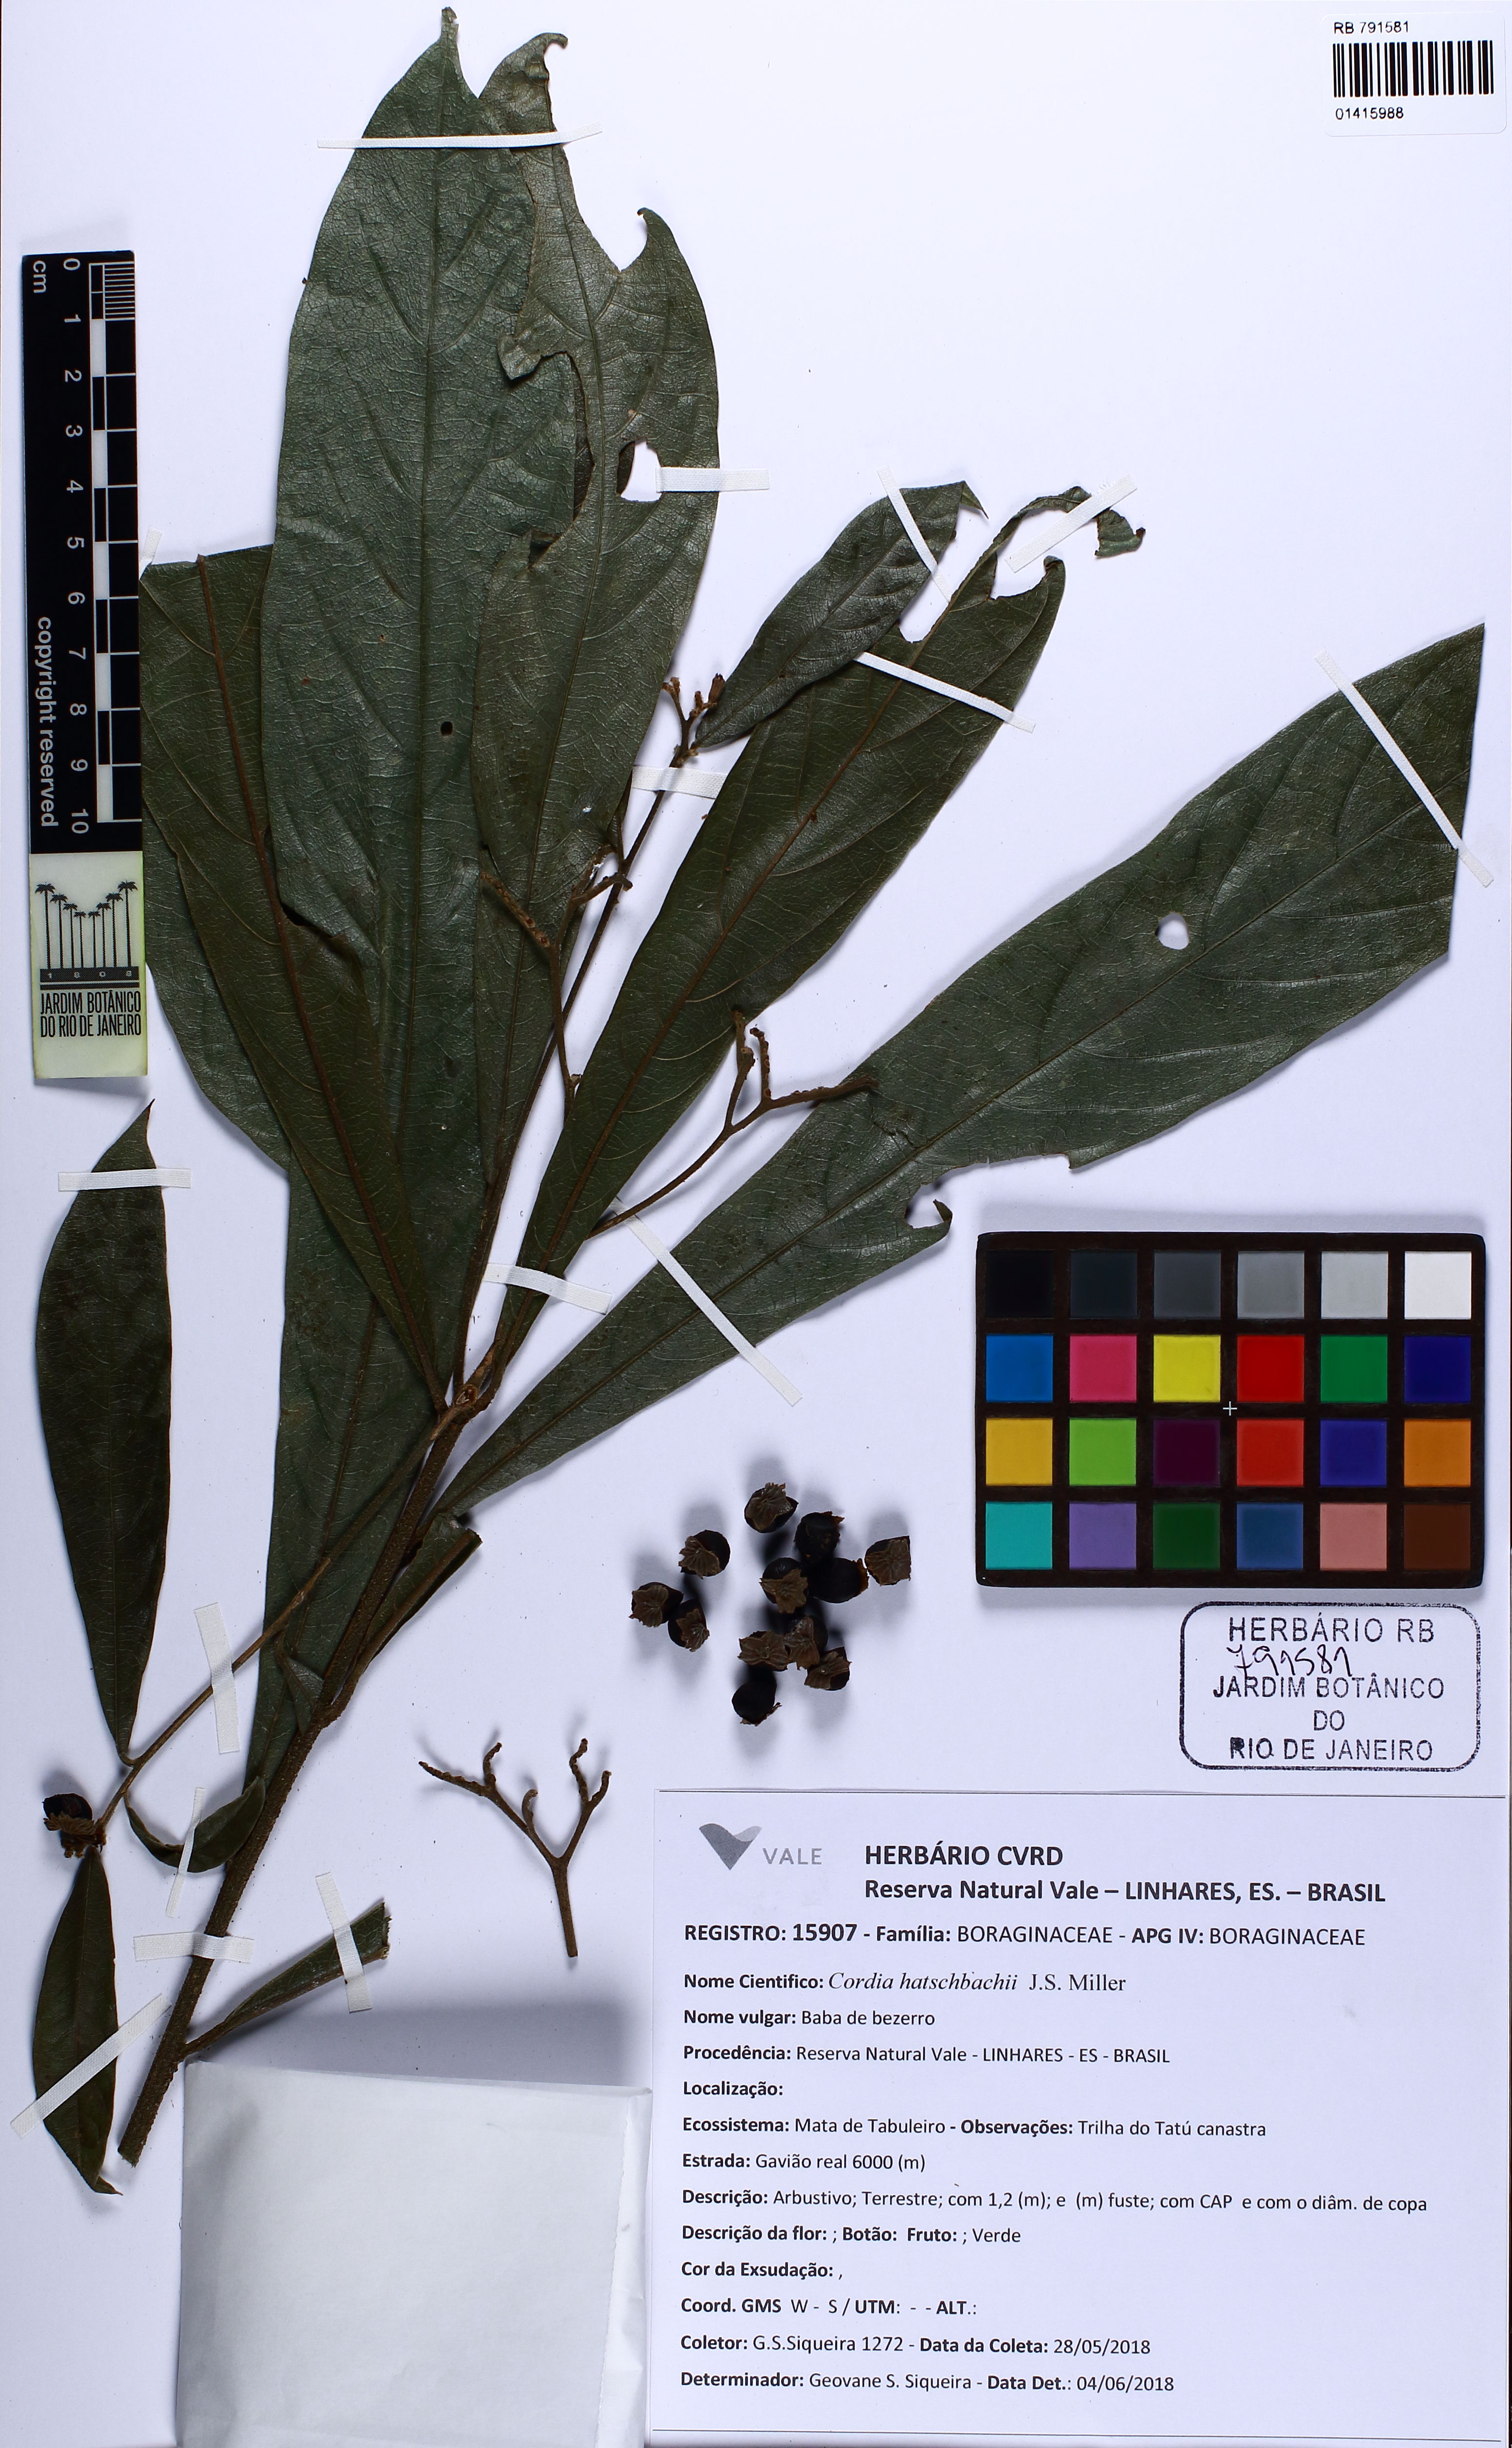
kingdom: Plantae
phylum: Tracheophyta
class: Magnoliopsida
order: Boraginales
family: Cordiaceae
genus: Cordia
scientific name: Cordia hatschbachii
